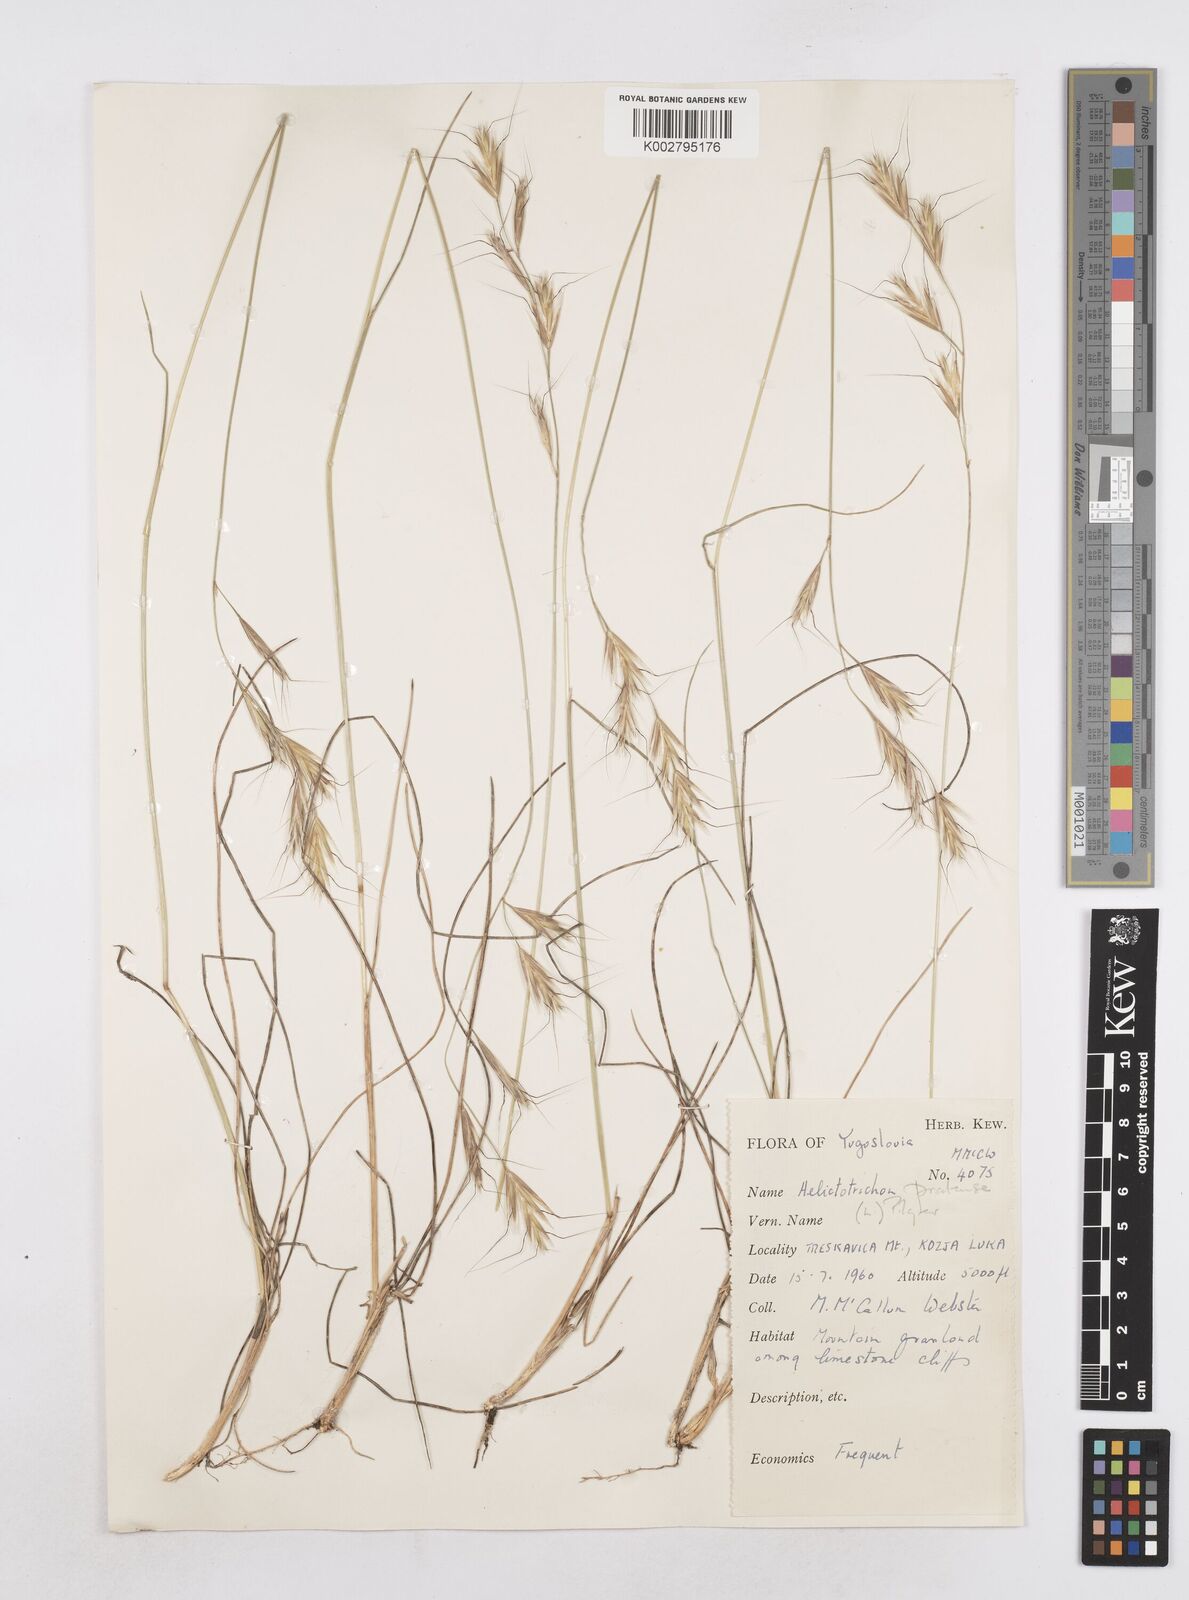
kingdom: Plantae
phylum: Tracheophyta
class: Liliopsida
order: Poales
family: Poaceae
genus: Helictochloa
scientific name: Helictochloa pratensis
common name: Meadow oat grass
